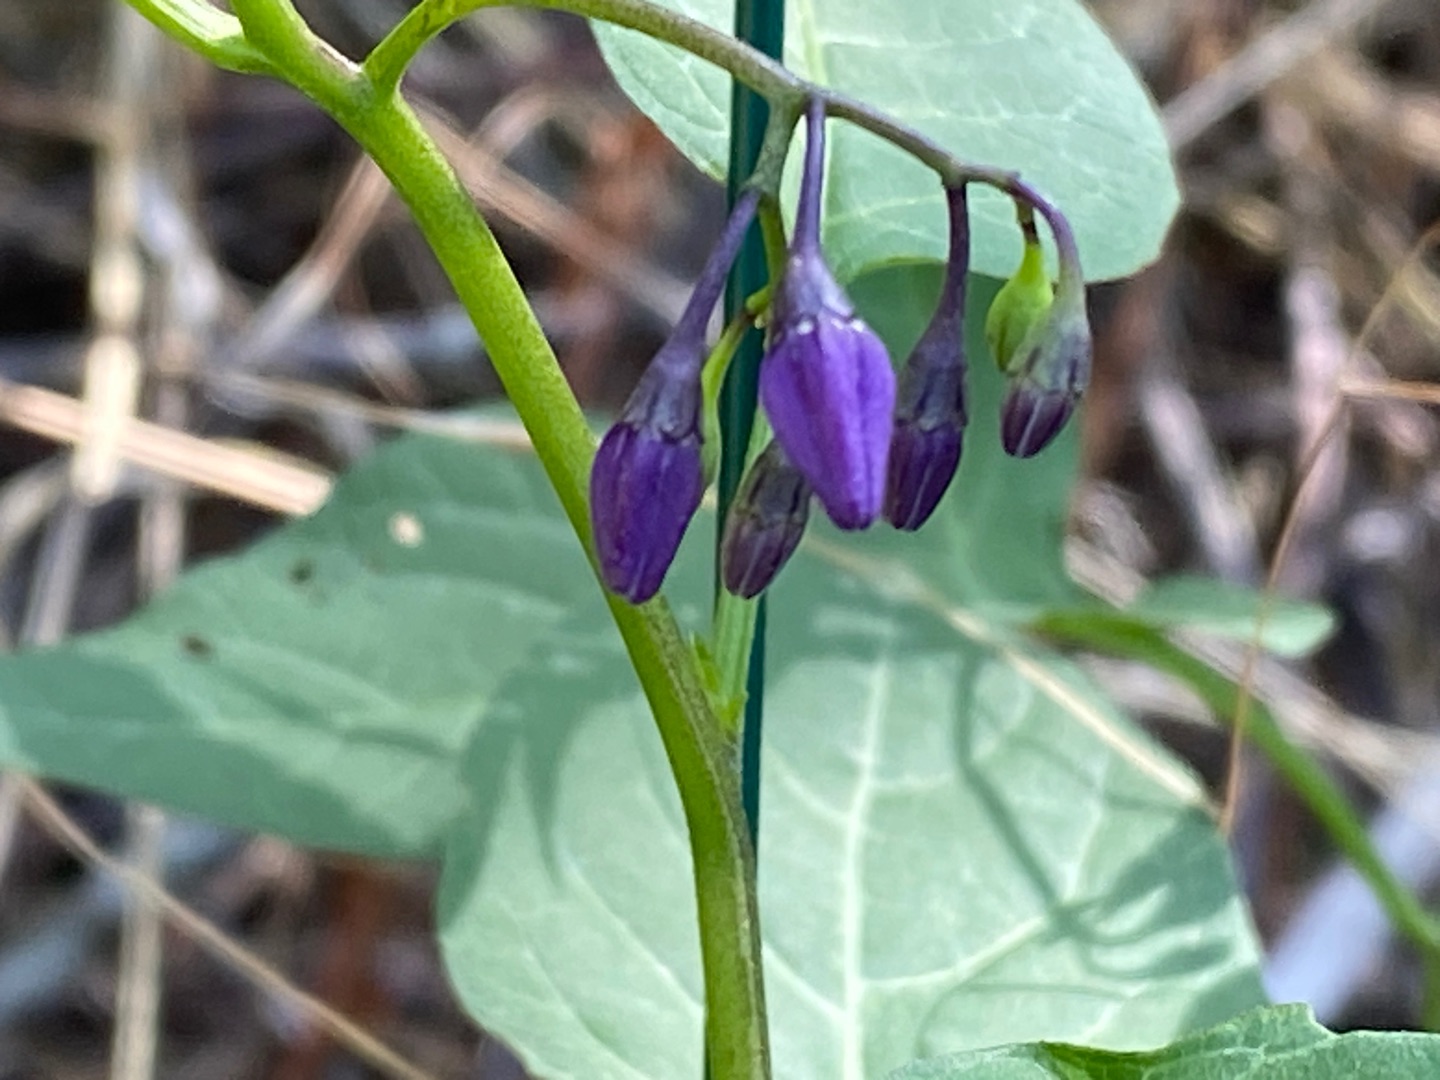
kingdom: Plantae
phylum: Tracheophyta
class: Magnoliopsida
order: Solanales
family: Solanaceae
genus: Solanum
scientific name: Solanum dulcamara
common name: Bittersød natskygge
